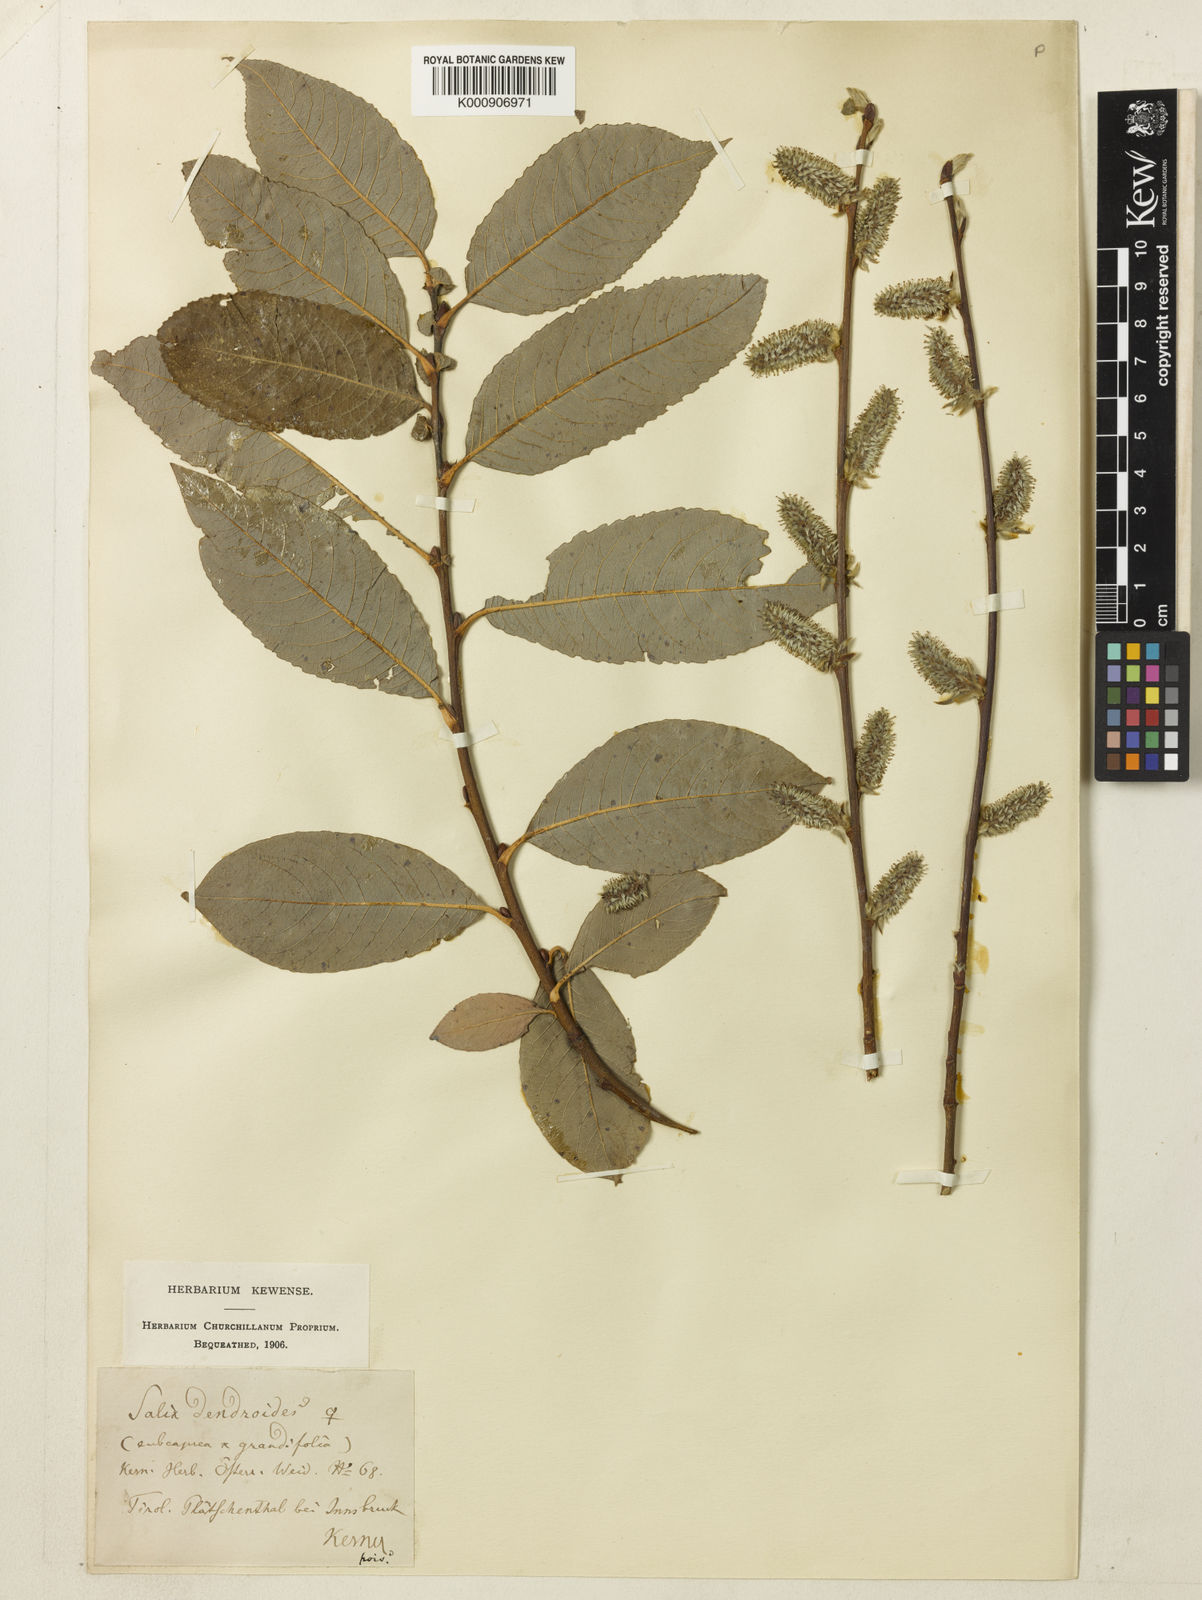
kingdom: Plantae
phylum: Tracheophyta
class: Magnoliopsida
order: Malpighiales
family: Salicaceae
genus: Salix
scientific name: Salix appendiculata
